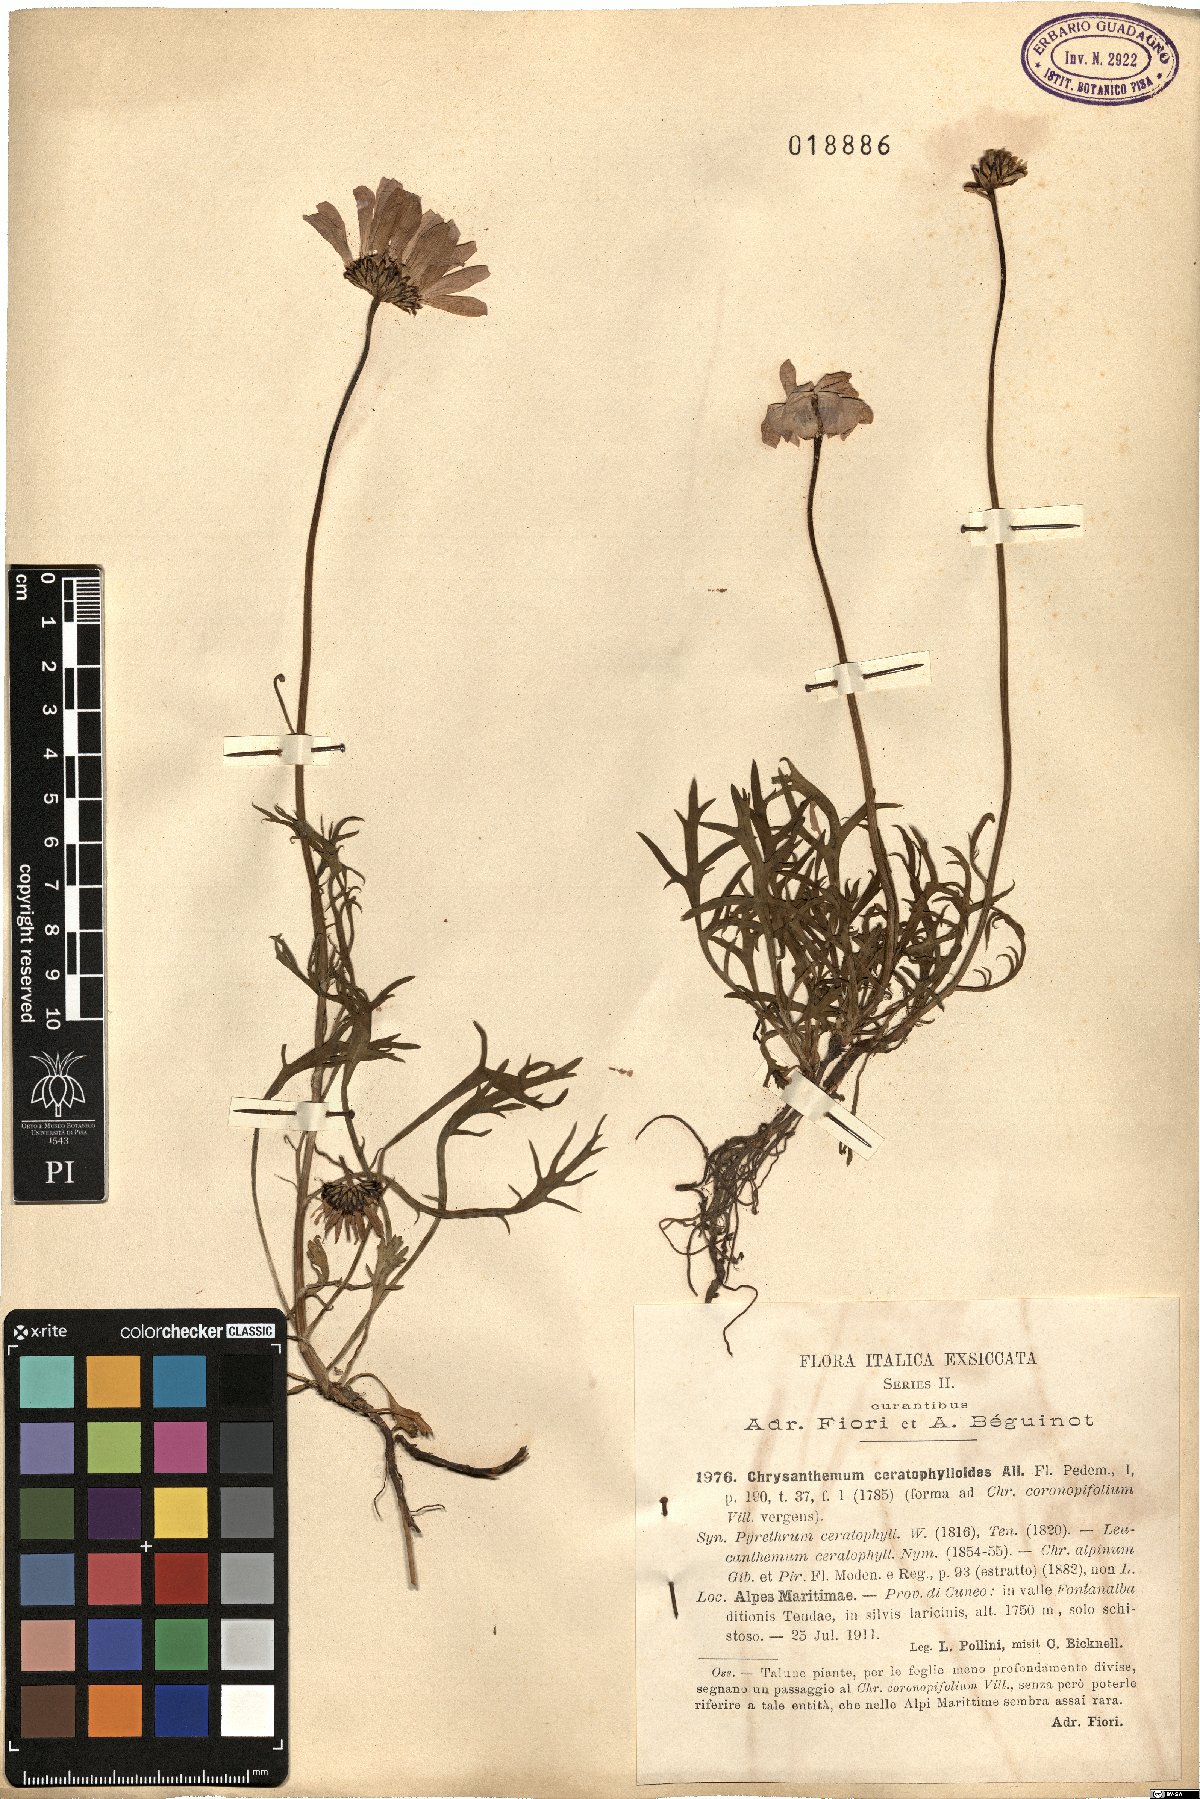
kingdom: Plantae
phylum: Tracheophyta
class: Magnoliopsida
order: Asterales
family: Asteraceae
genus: Leucanthemum
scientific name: Leucanthemum coronopifolium
